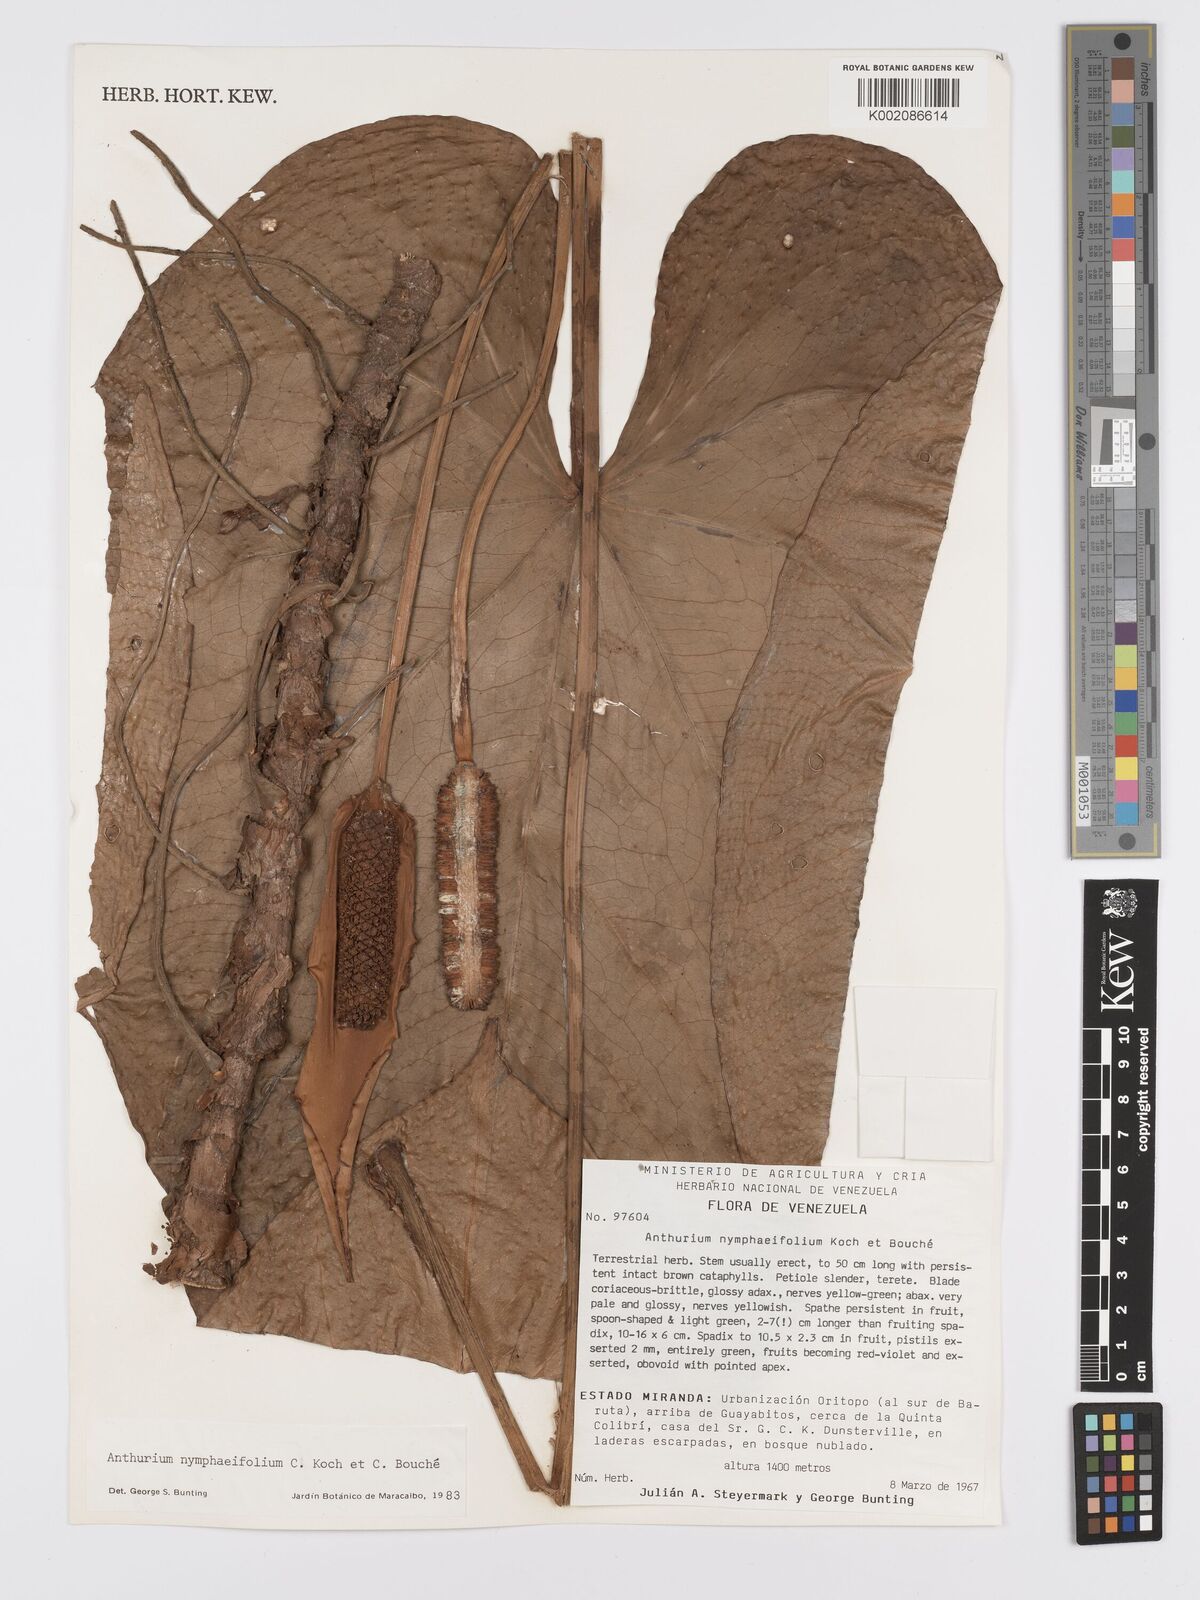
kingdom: Plantae
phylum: Tracheophyta
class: Liliopsida
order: Alismatales
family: Araceae
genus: Anthurium
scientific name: Anthurium nymphaeifolium
